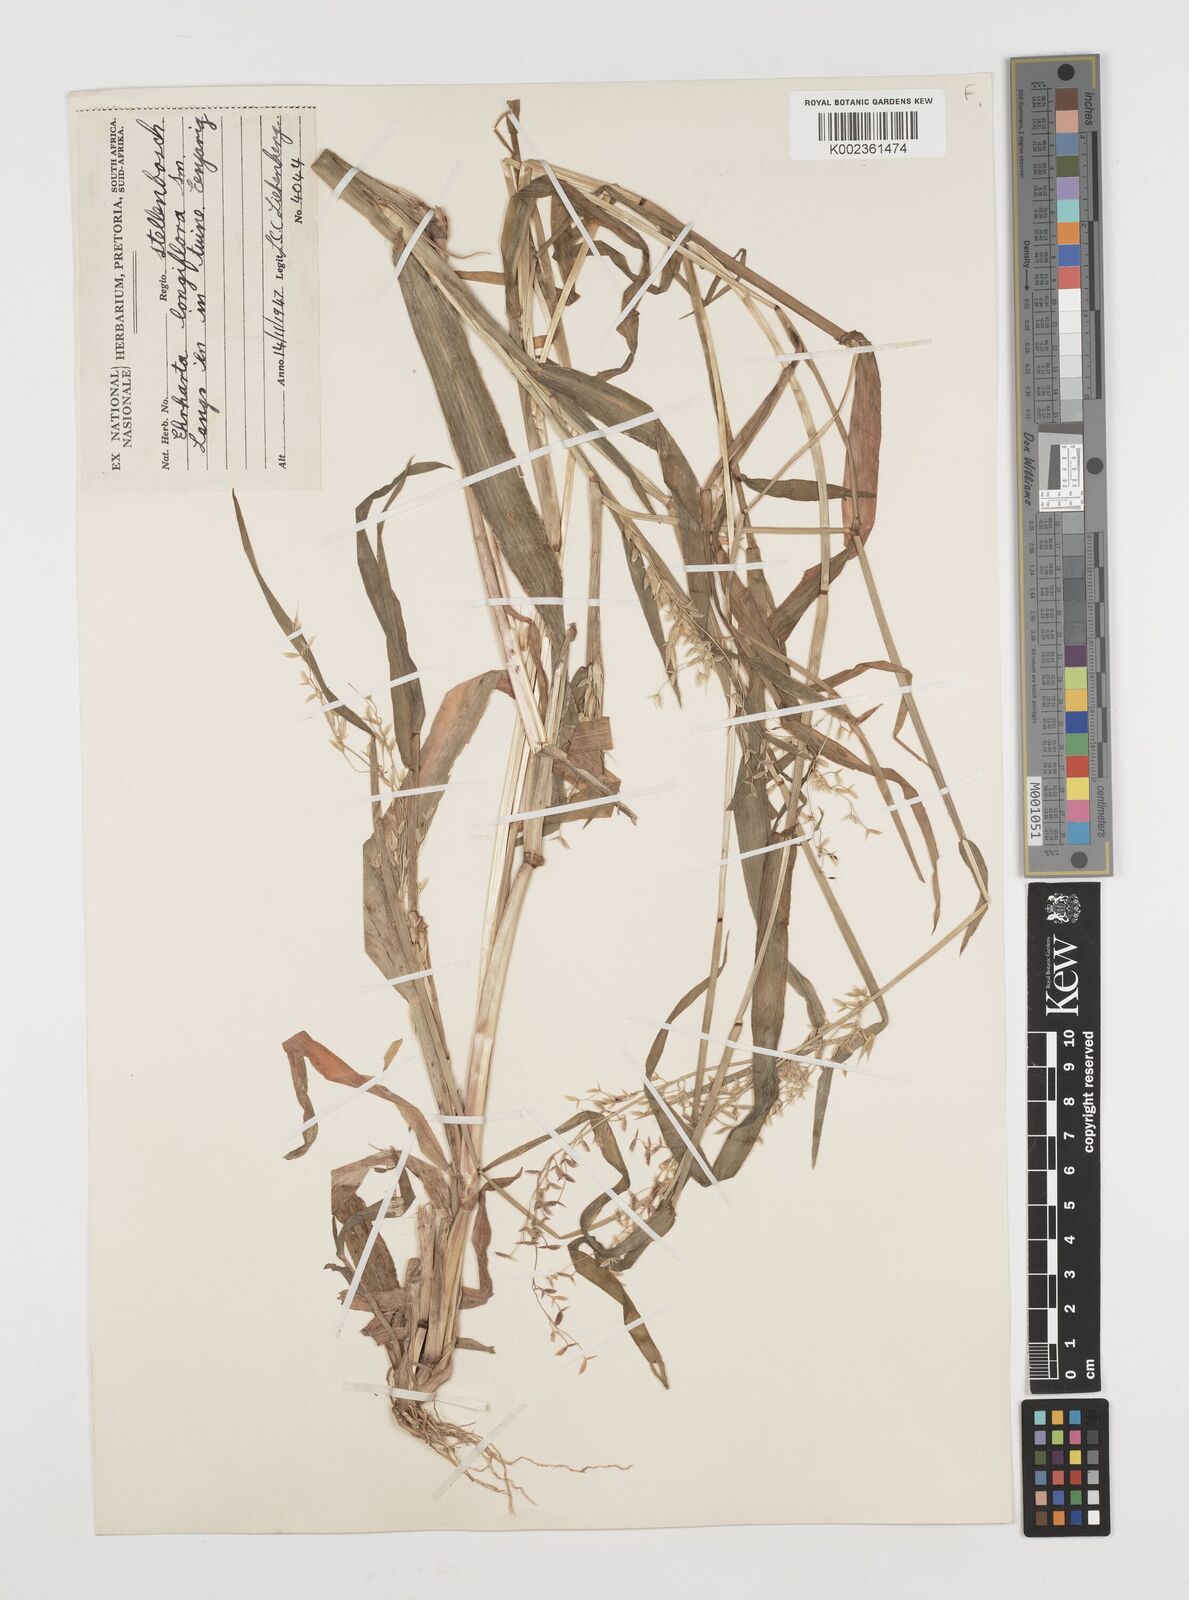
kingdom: Plantae
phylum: Tracheophyta
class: Liliopsida
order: Poales
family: Poaceae
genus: Ehrharta
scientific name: Ehrharta longiflora
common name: Longflowered veldtgrass
